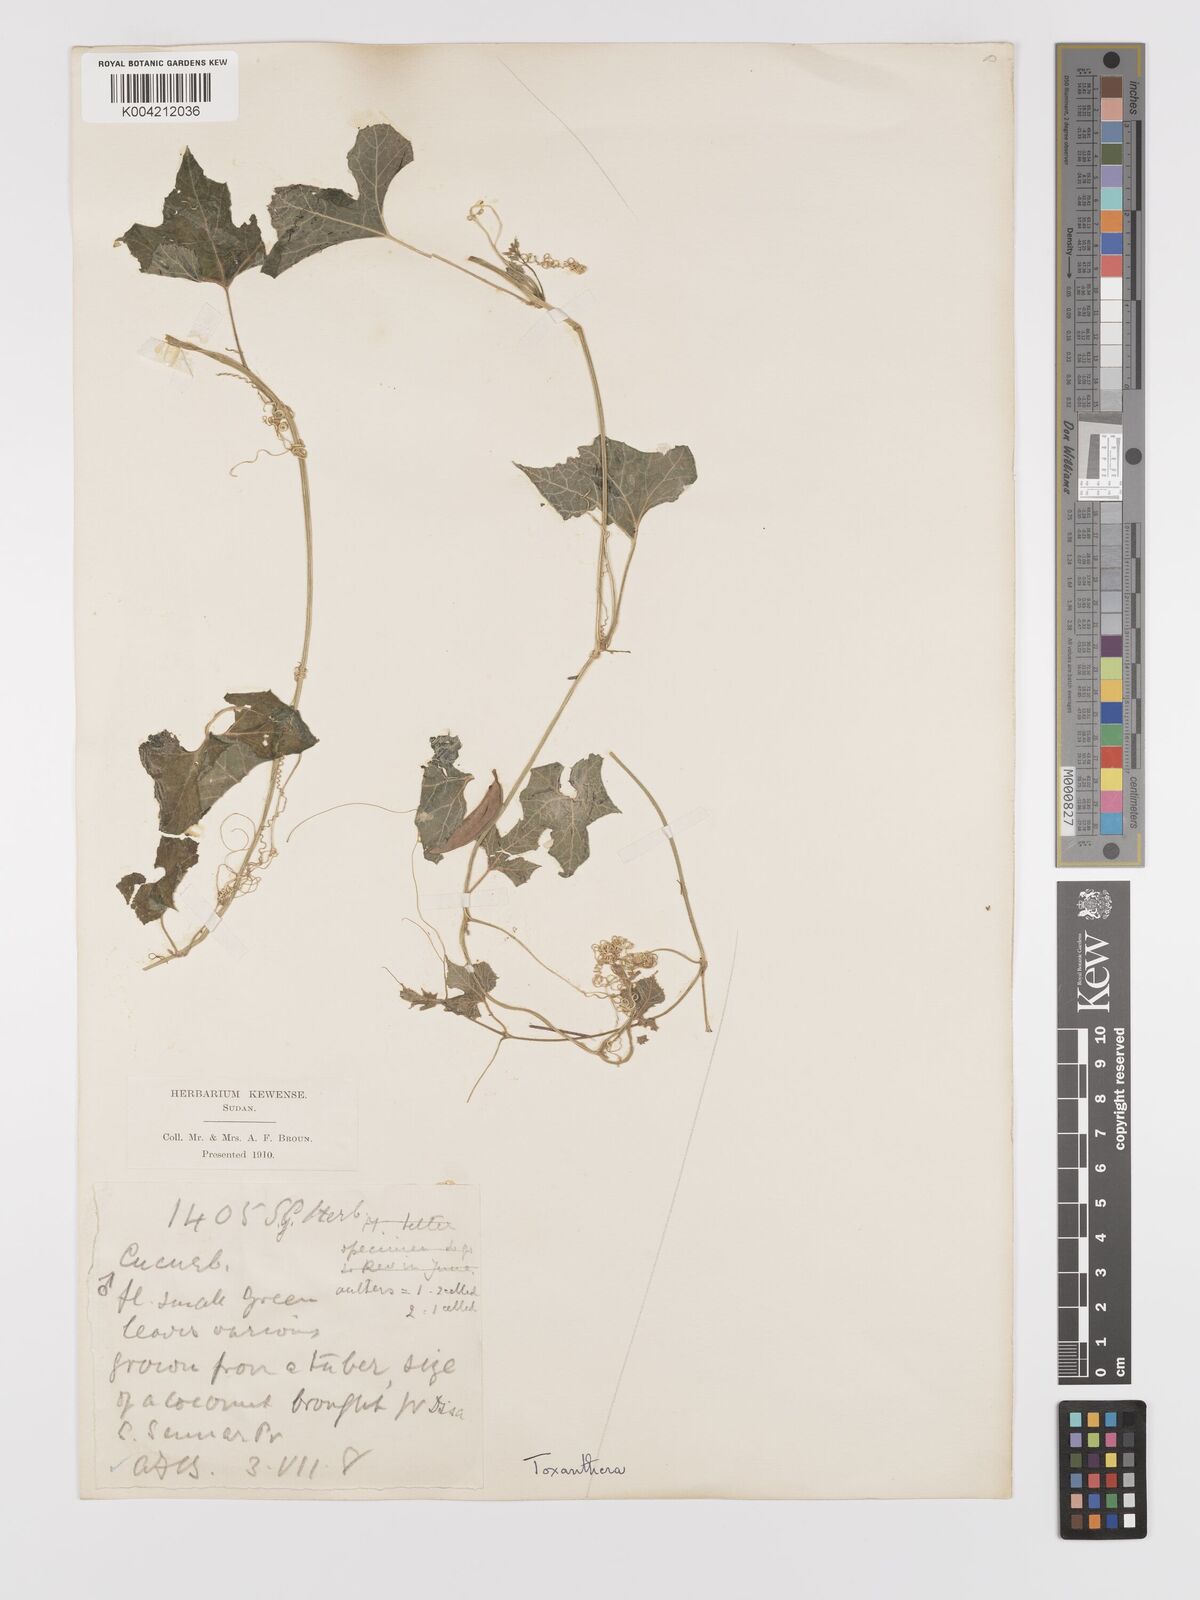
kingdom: Plantae
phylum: Tracheophyta
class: Magnoliopsida
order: Cucurbitales
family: Cucurbitaceae
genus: Kedrostis
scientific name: Kedrostis leloja
